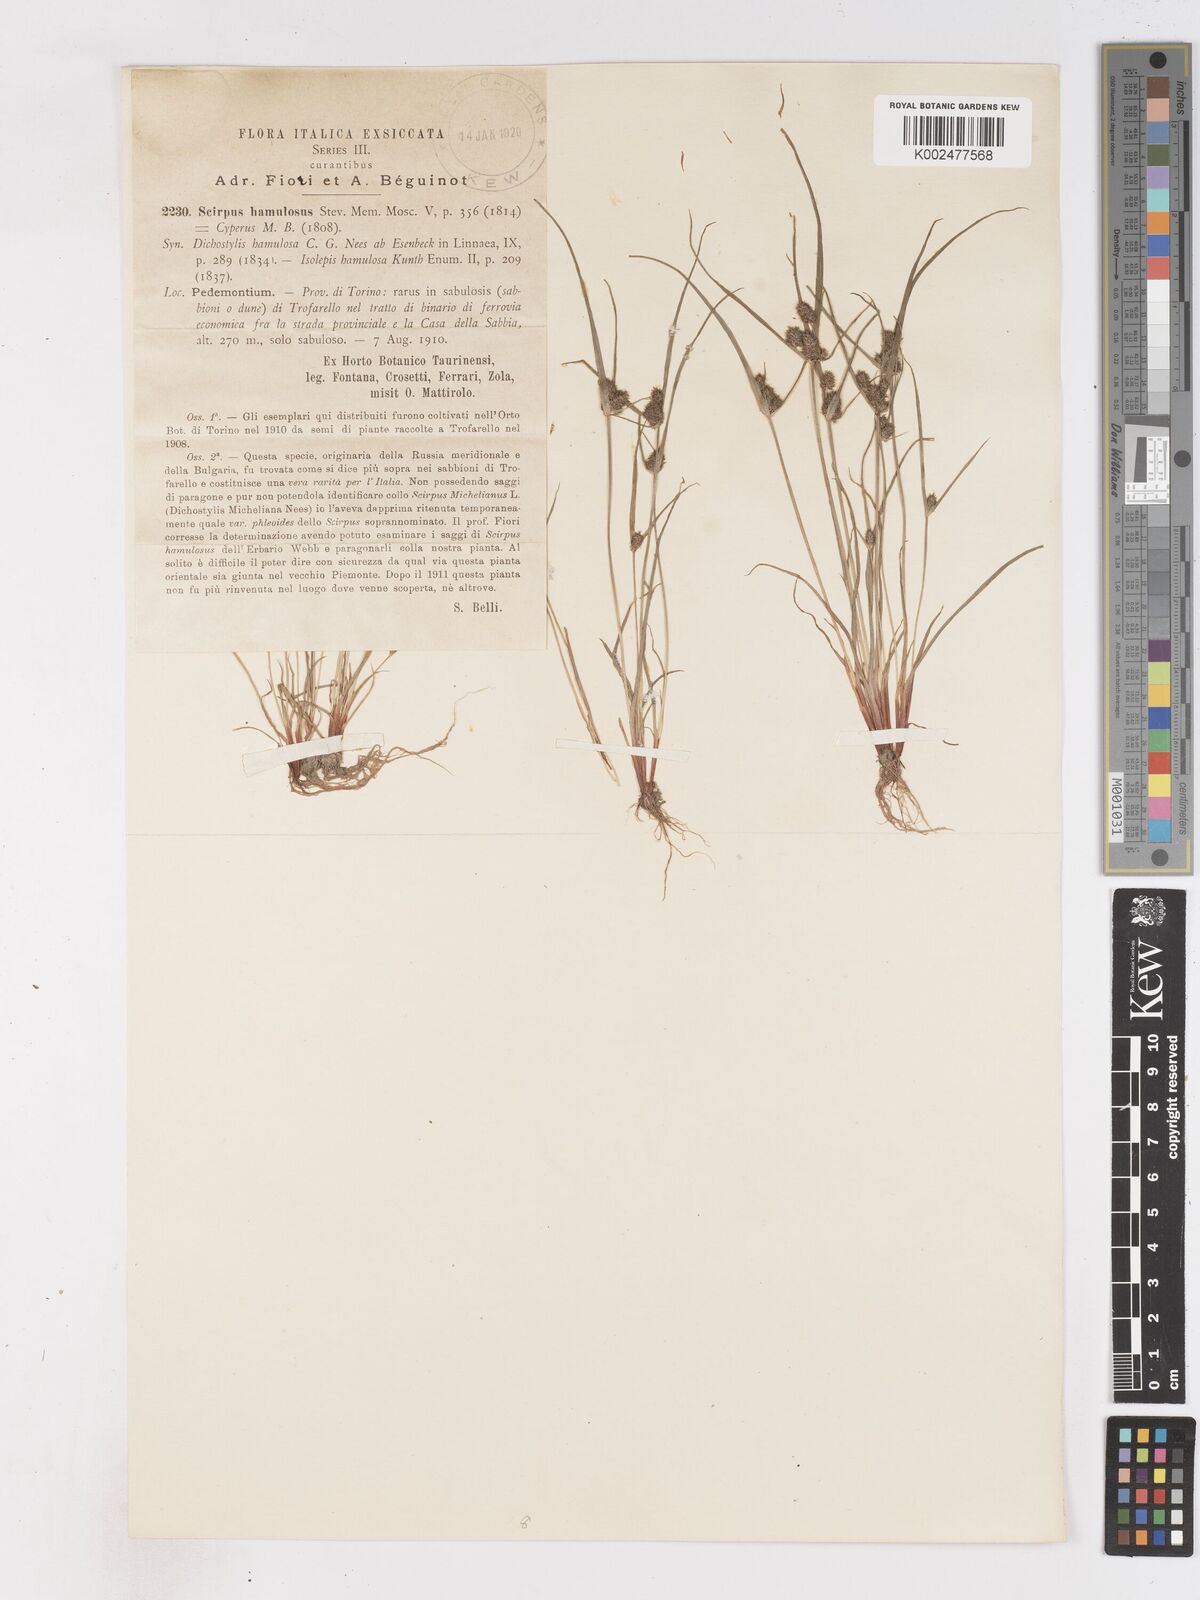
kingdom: Plantae
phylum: Tracheophyta
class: Liliopsida
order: Poales
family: Cyperaceae
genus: Cyperus
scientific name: Cyperus hamulosus
